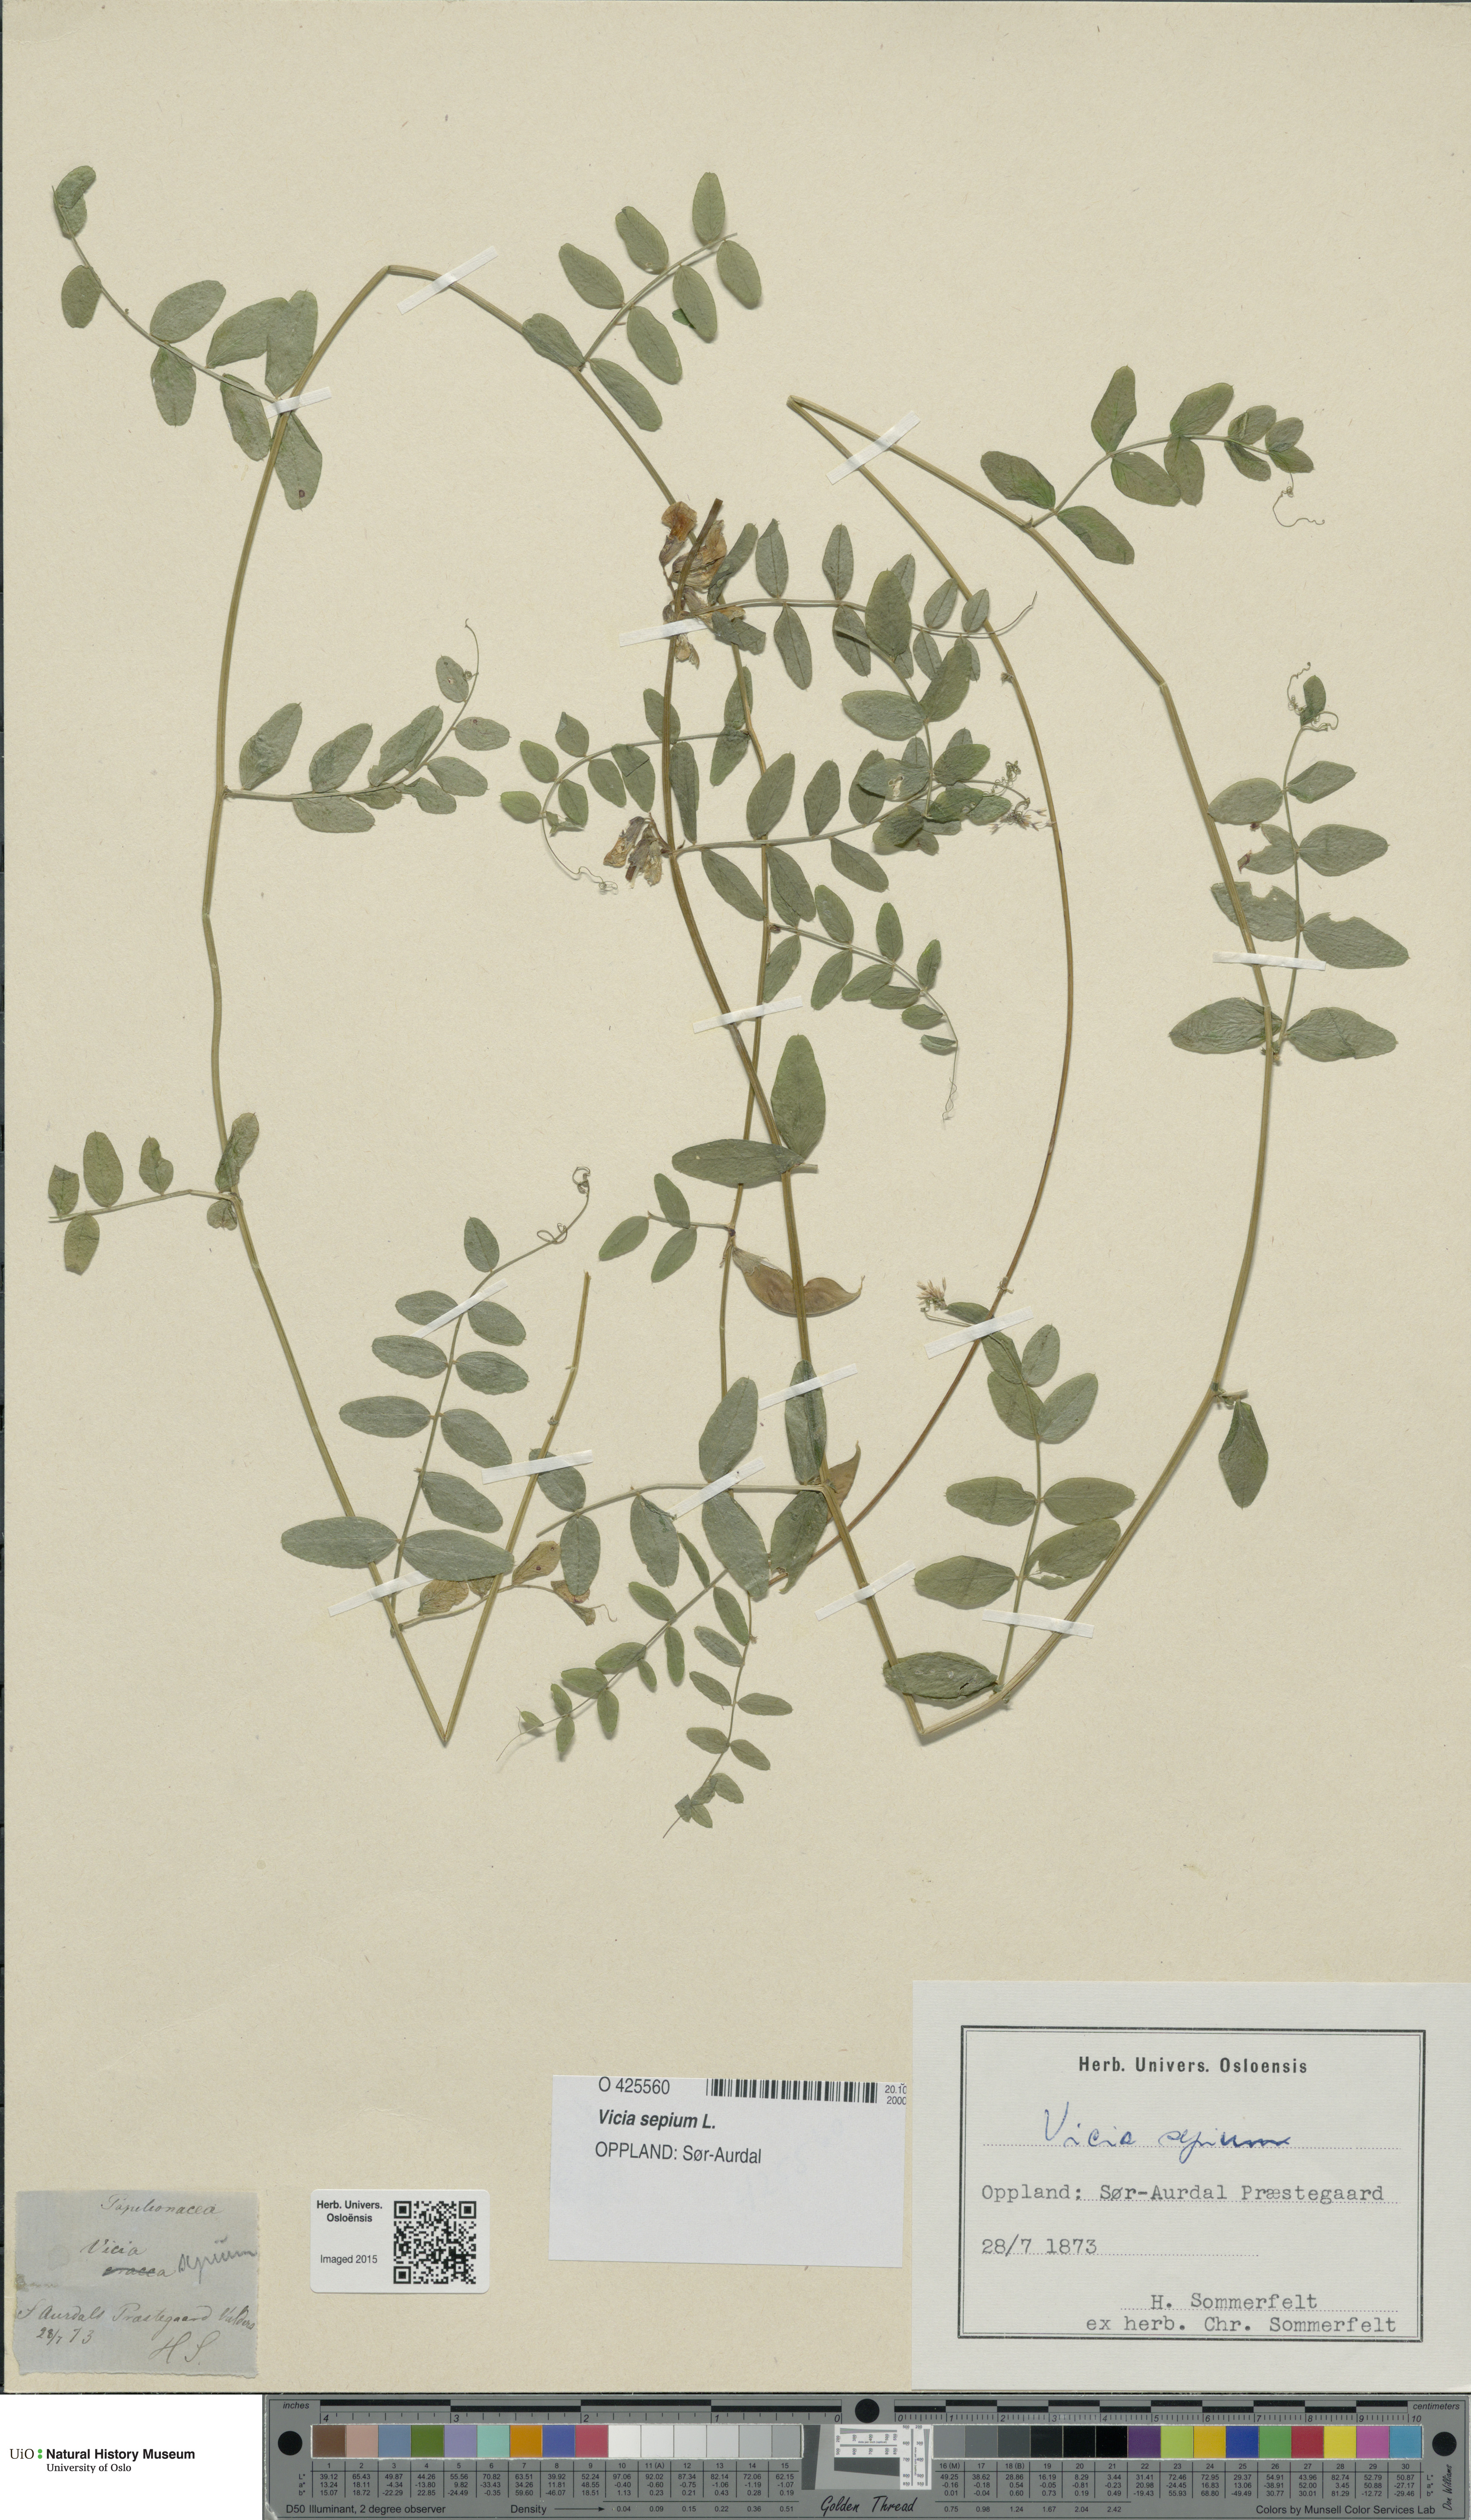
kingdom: Plantae
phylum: Tracheophyta
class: Magnoliopsida
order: Fabales
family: Fabaceae
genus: Vicia
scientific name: Vicia sepium
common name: Bush vetch
